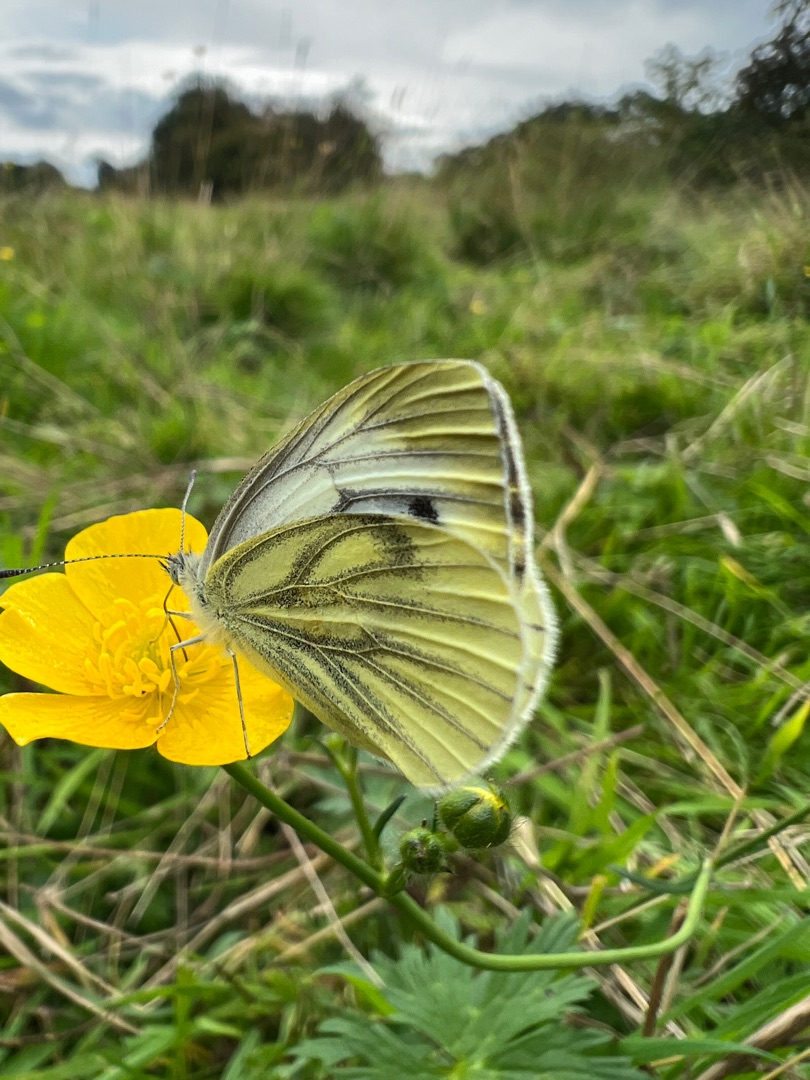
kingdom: Animalia
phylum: Arthropoda
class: Insecta
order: Lepidoptera
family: Pieridae
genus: Pieris
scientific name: Pieris napi
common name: Grønåret kålsommerfugl
